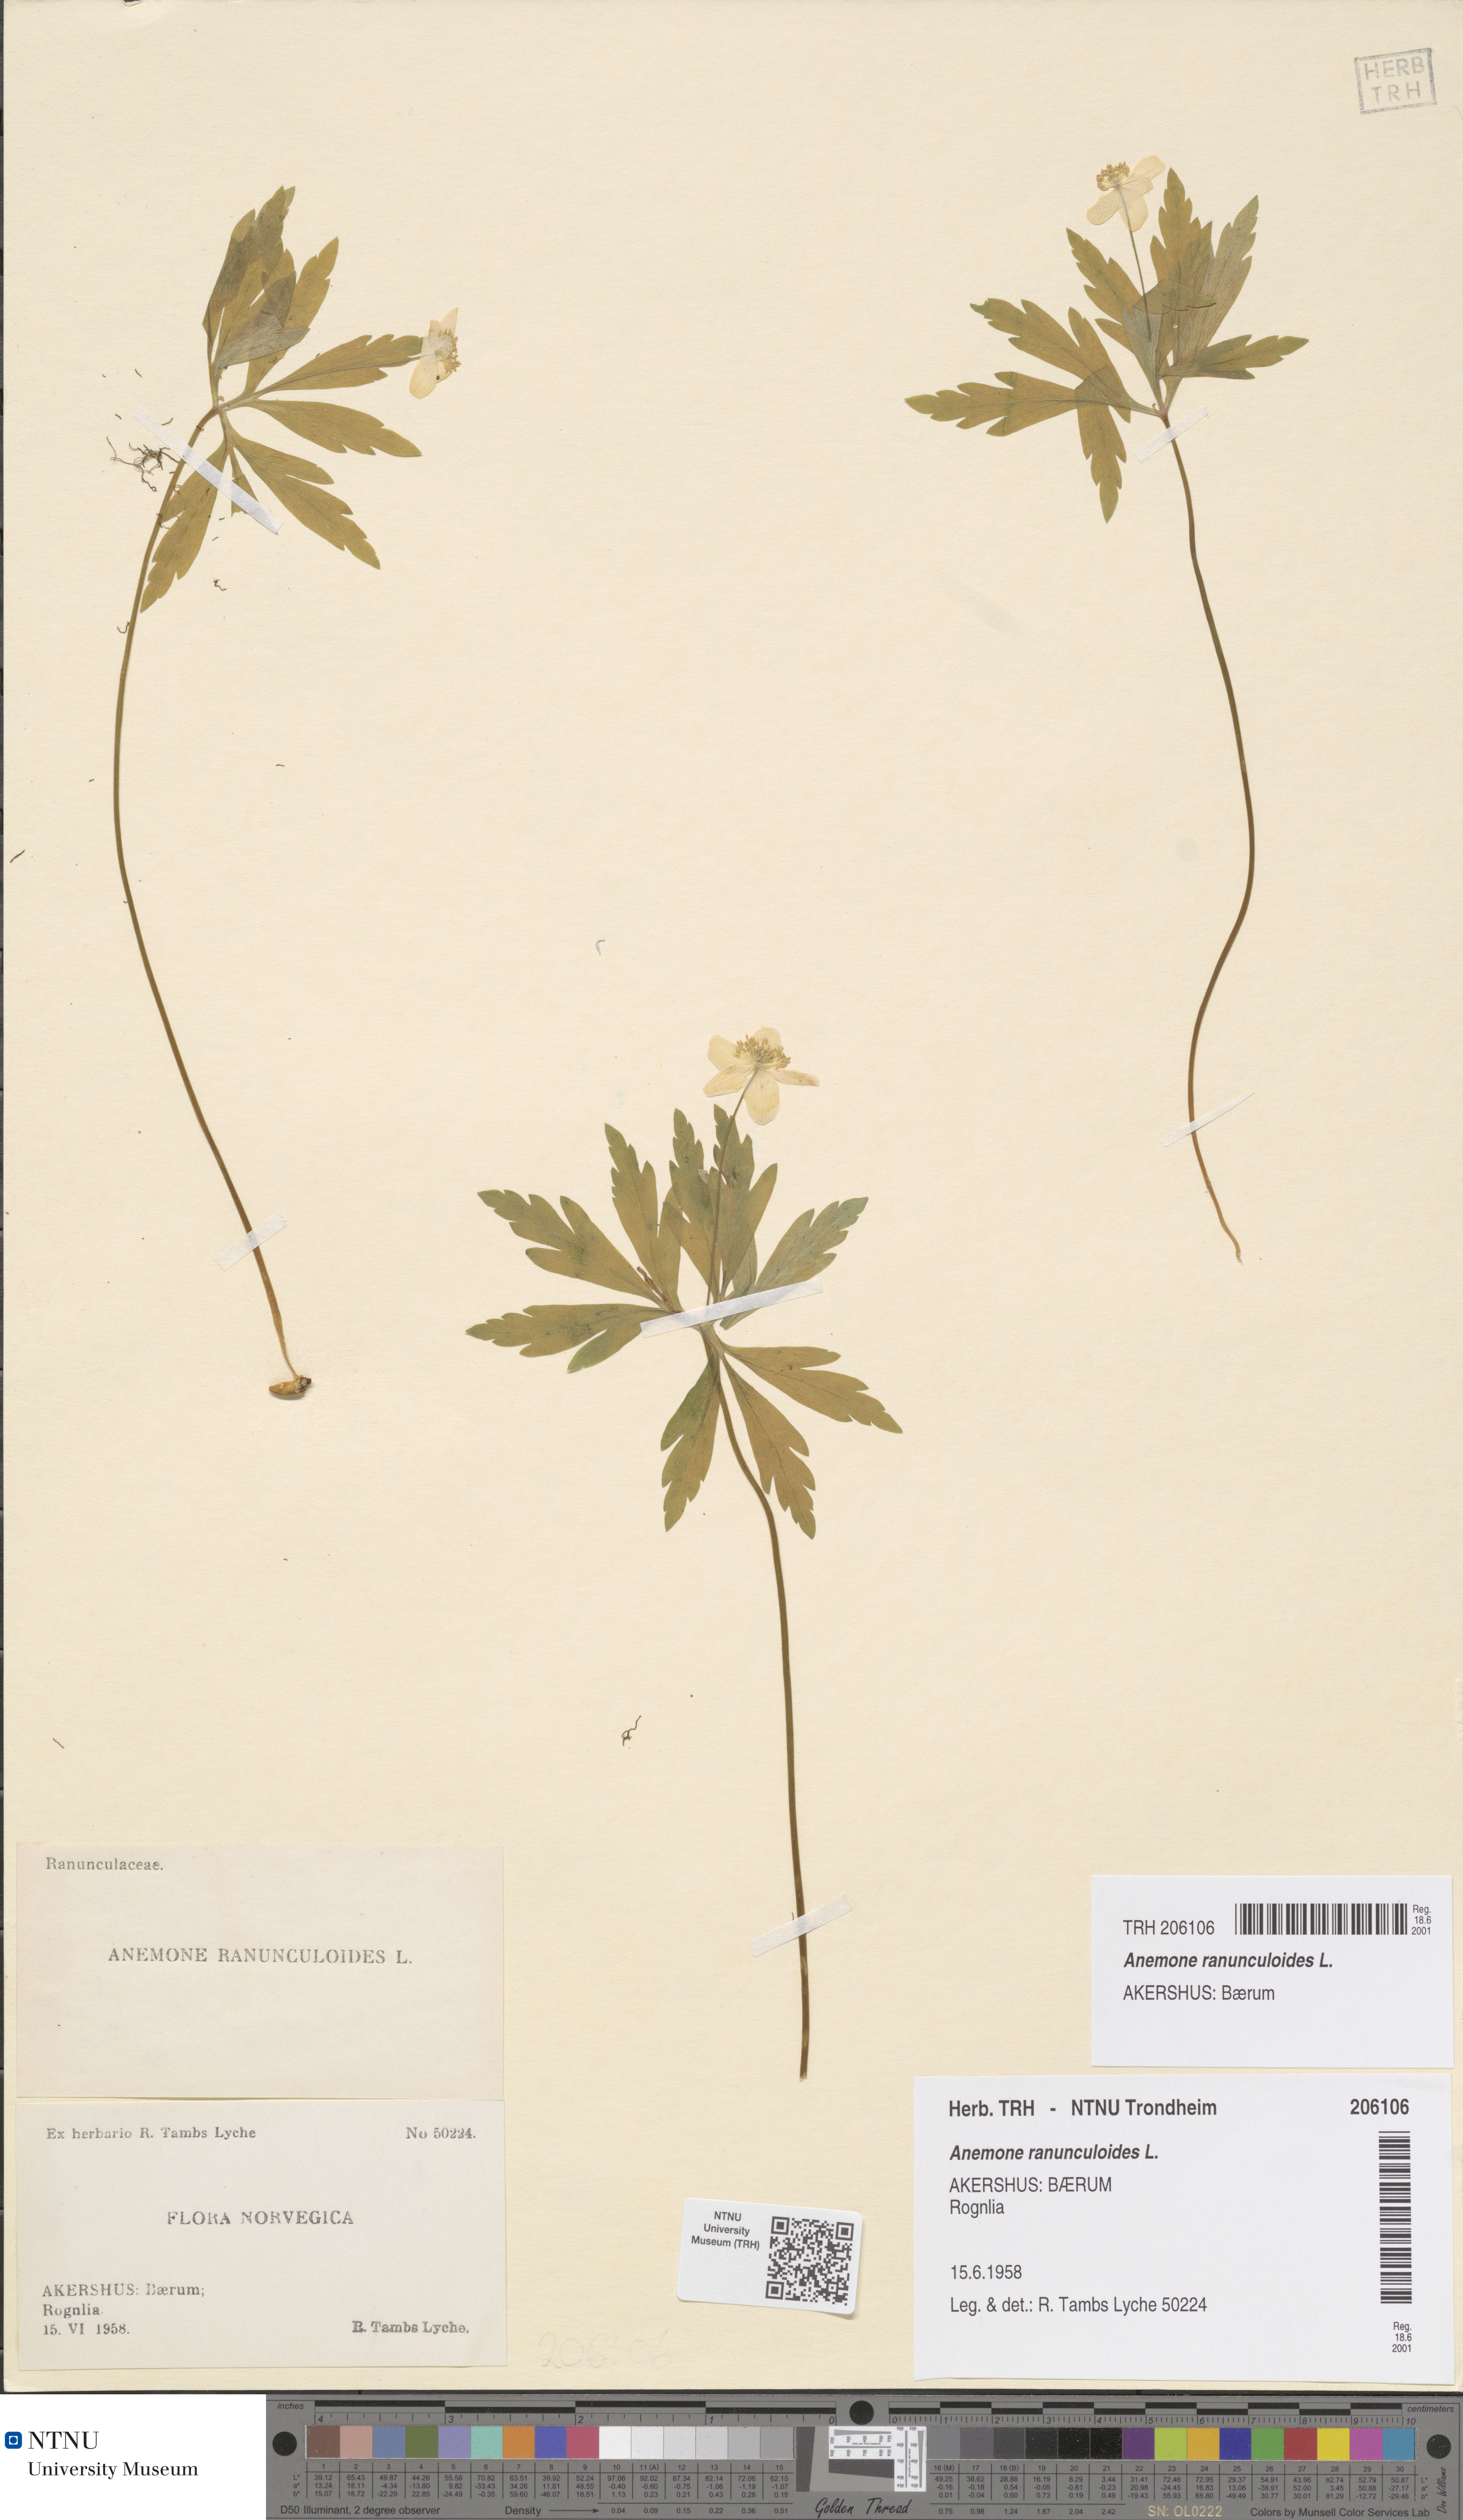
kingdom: Plantae
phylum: Tracheophyta
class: Magnoliopsida
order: Ranunculales
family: Ranunculaceae
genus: Anemone
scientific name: Anemone ranunculoides
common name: Yellow anemone
